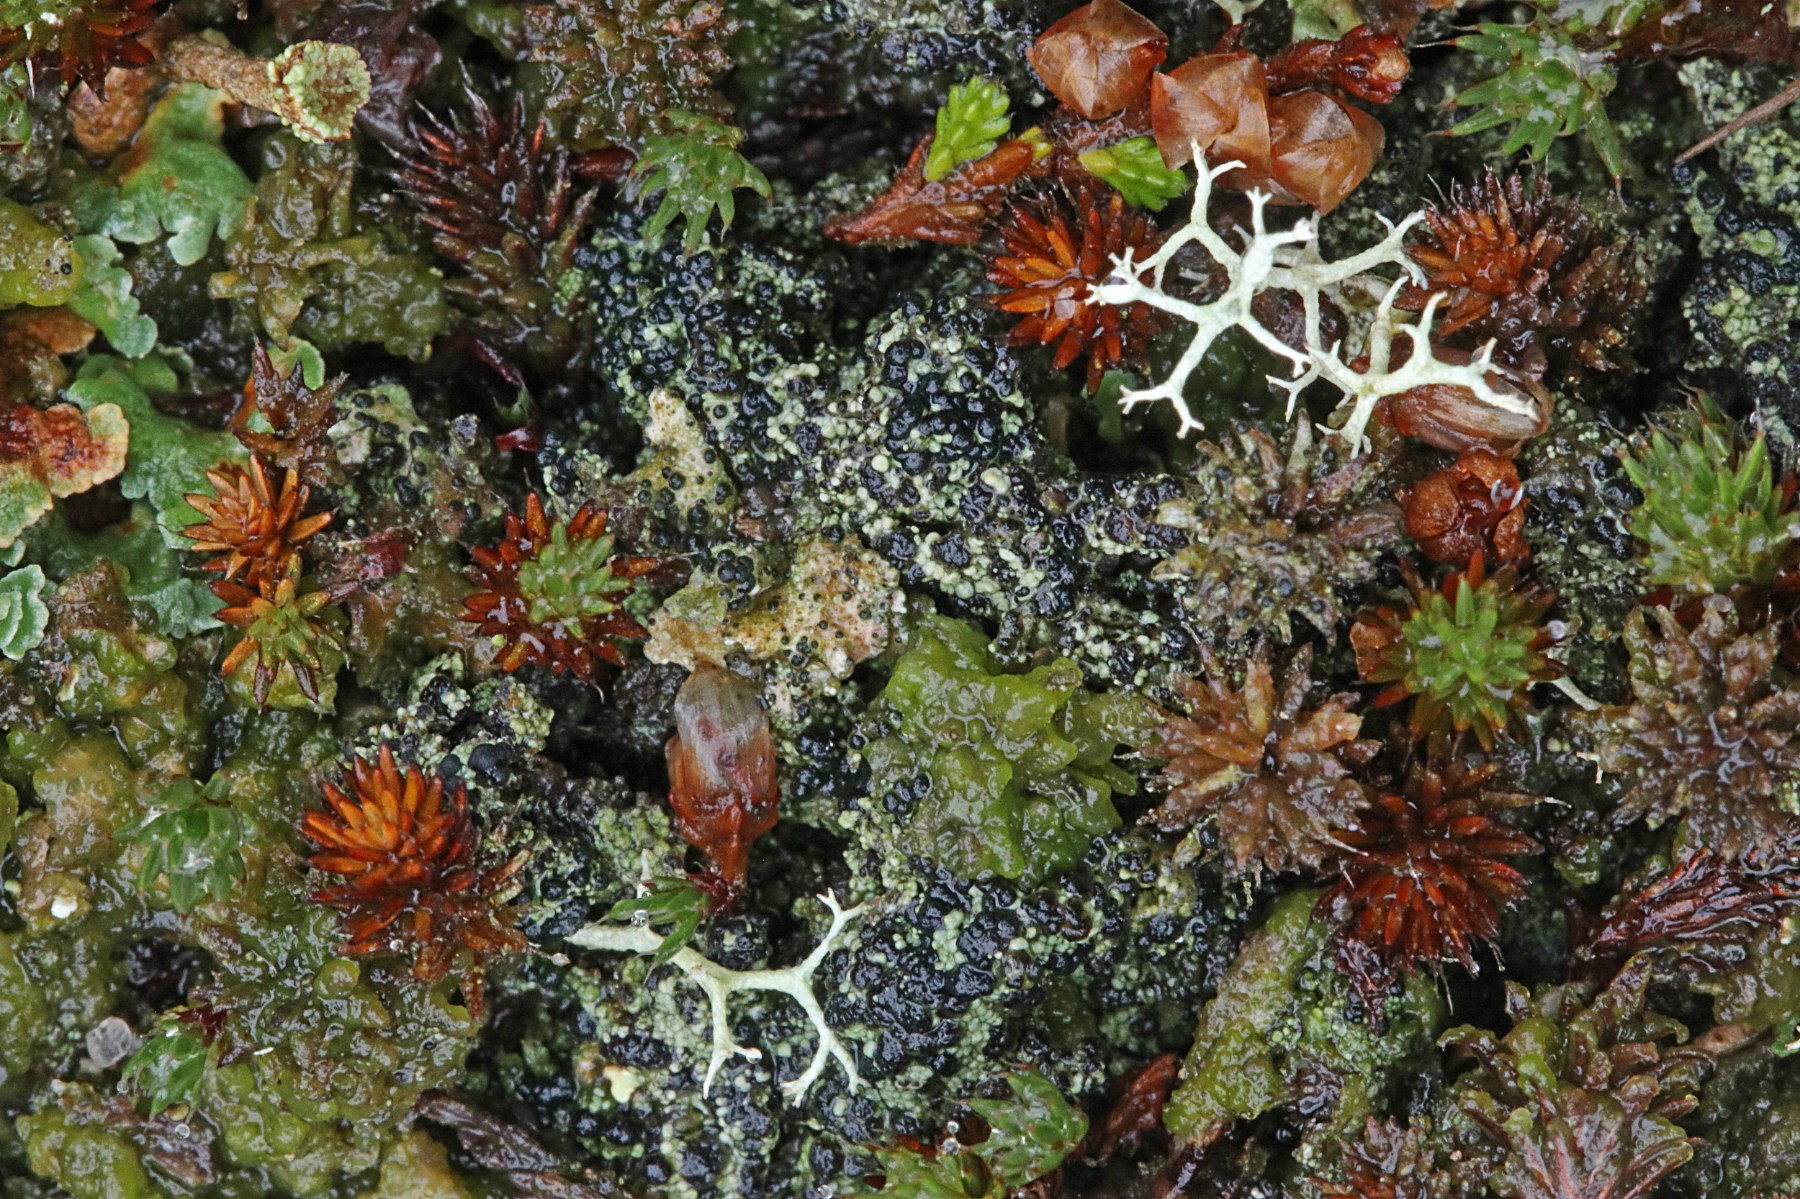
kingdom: Fungi
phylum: Ascomycota
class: Lecanoromycetes
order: Lecanorales
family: Byssolomataceae
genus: Micarea
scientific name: Micarea lignaria
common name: tørve-knaplav
